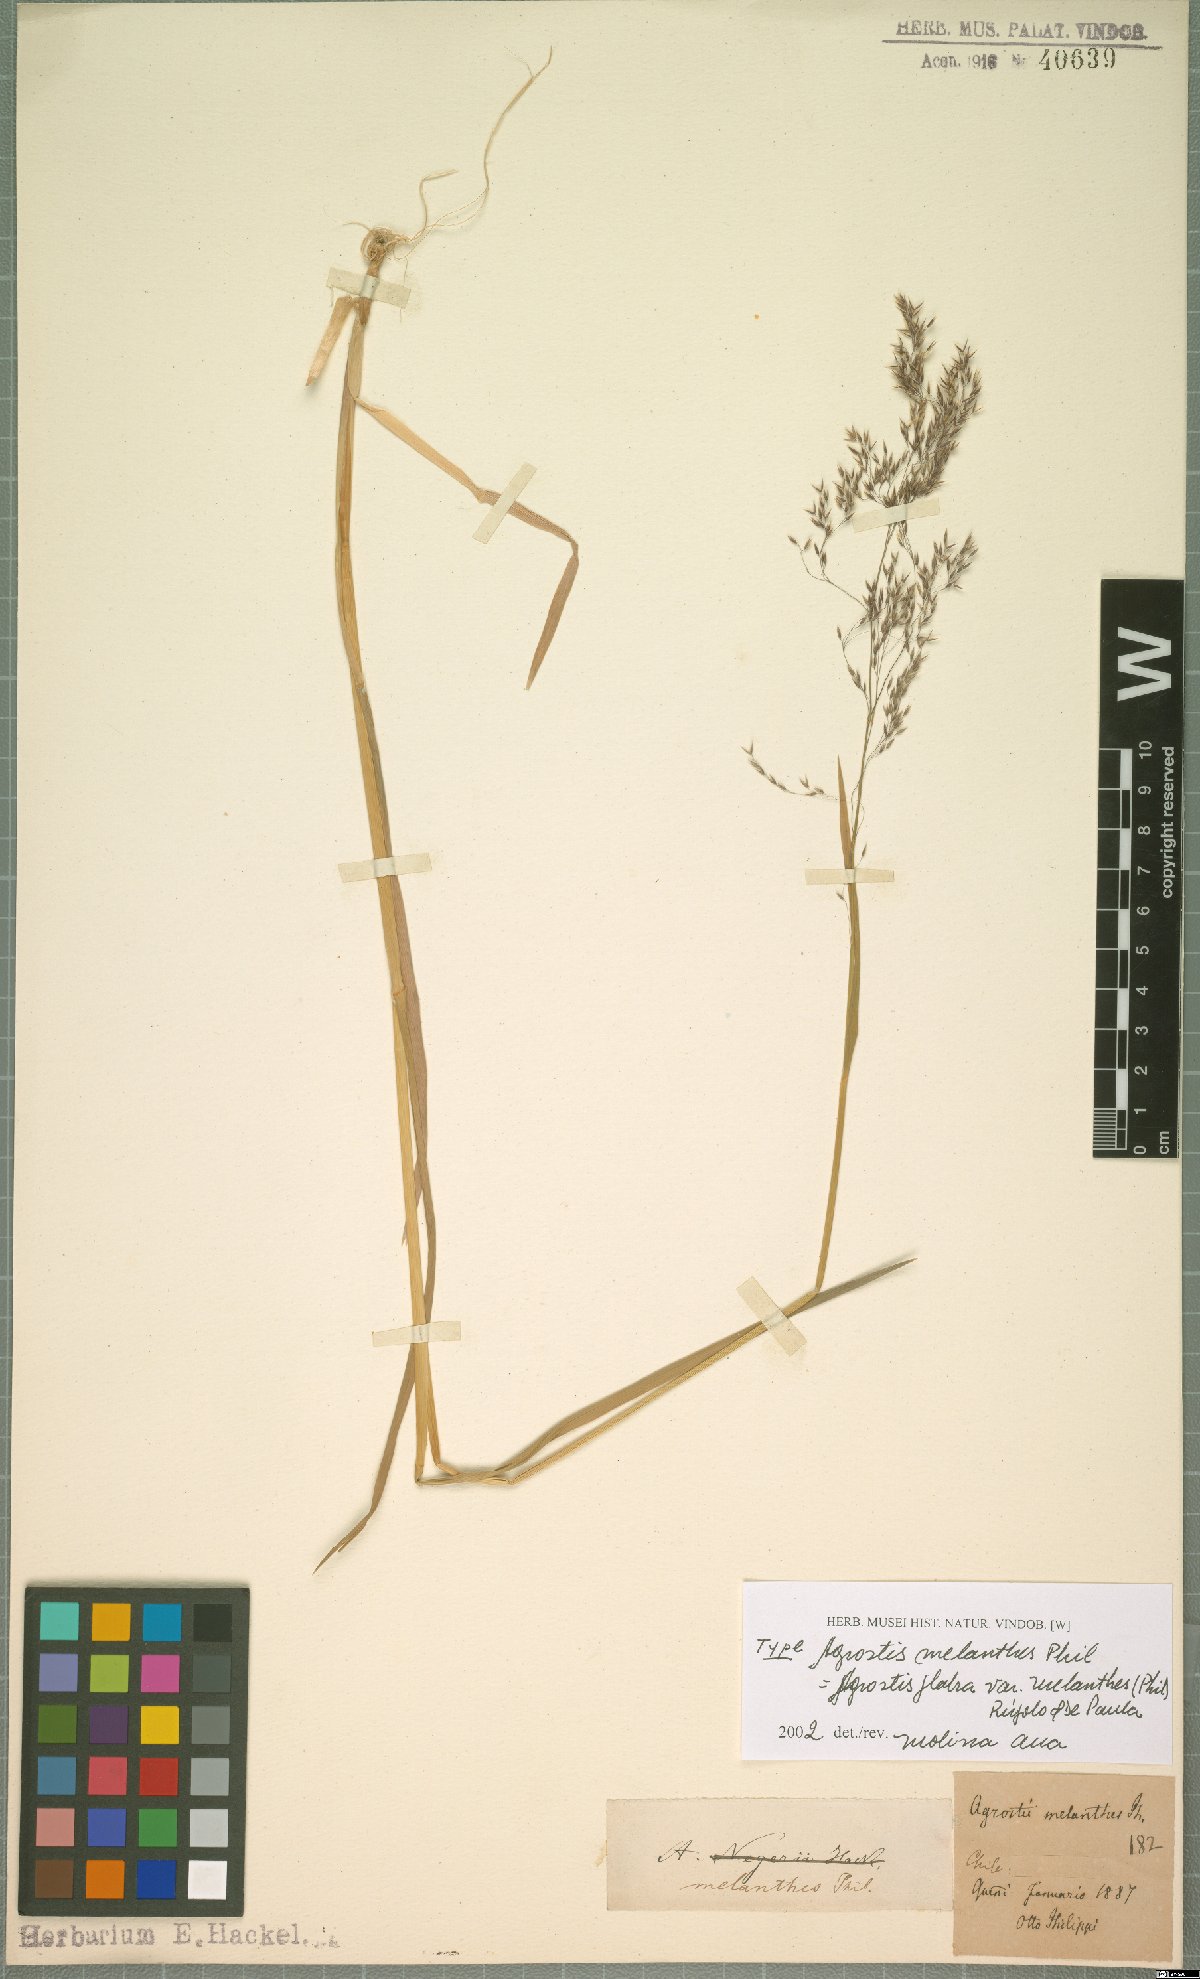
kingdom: Plantae
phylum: Tracheophyta
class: Liliopsida
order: Poales
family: Poaceae
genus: Agrostis
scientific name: Agrostis glabra
